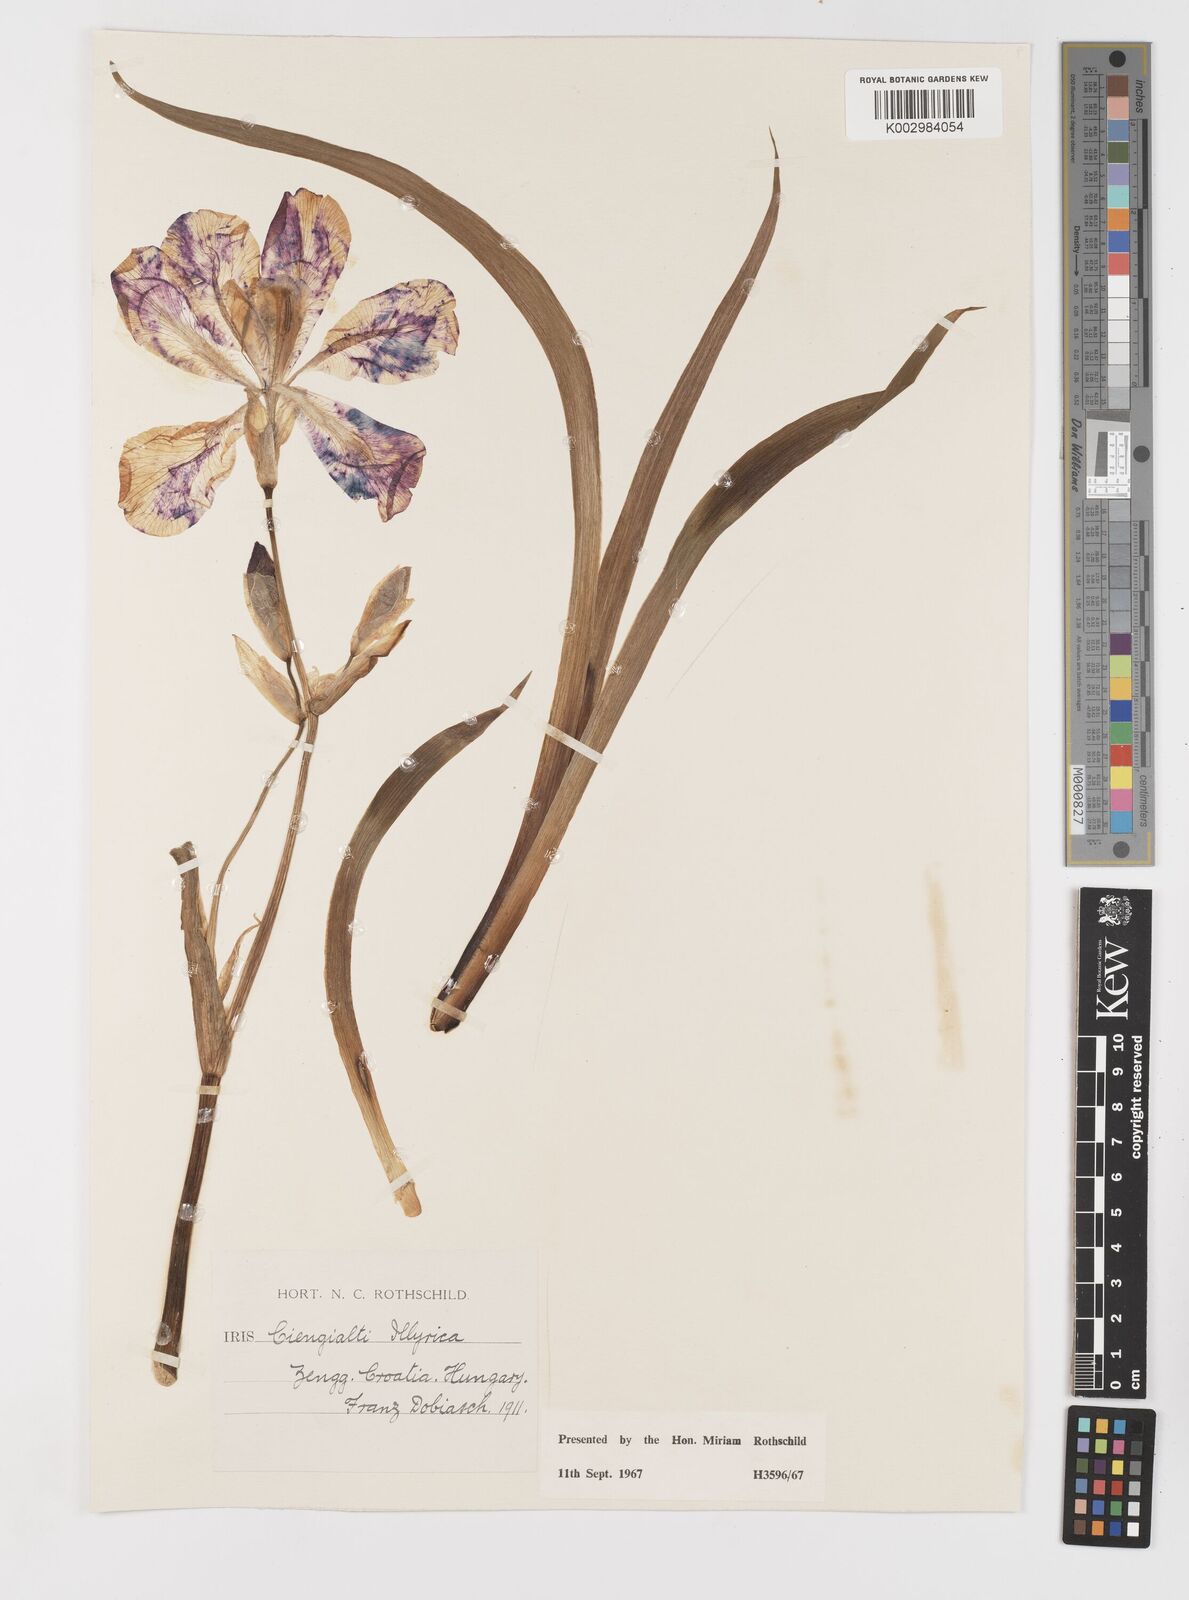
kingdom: Plantae
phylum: Tracheophyta
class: Liliopsida
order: Asparagales
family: Iridaceae
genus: Iris
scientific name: Iris pallida
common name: Sweet iris
